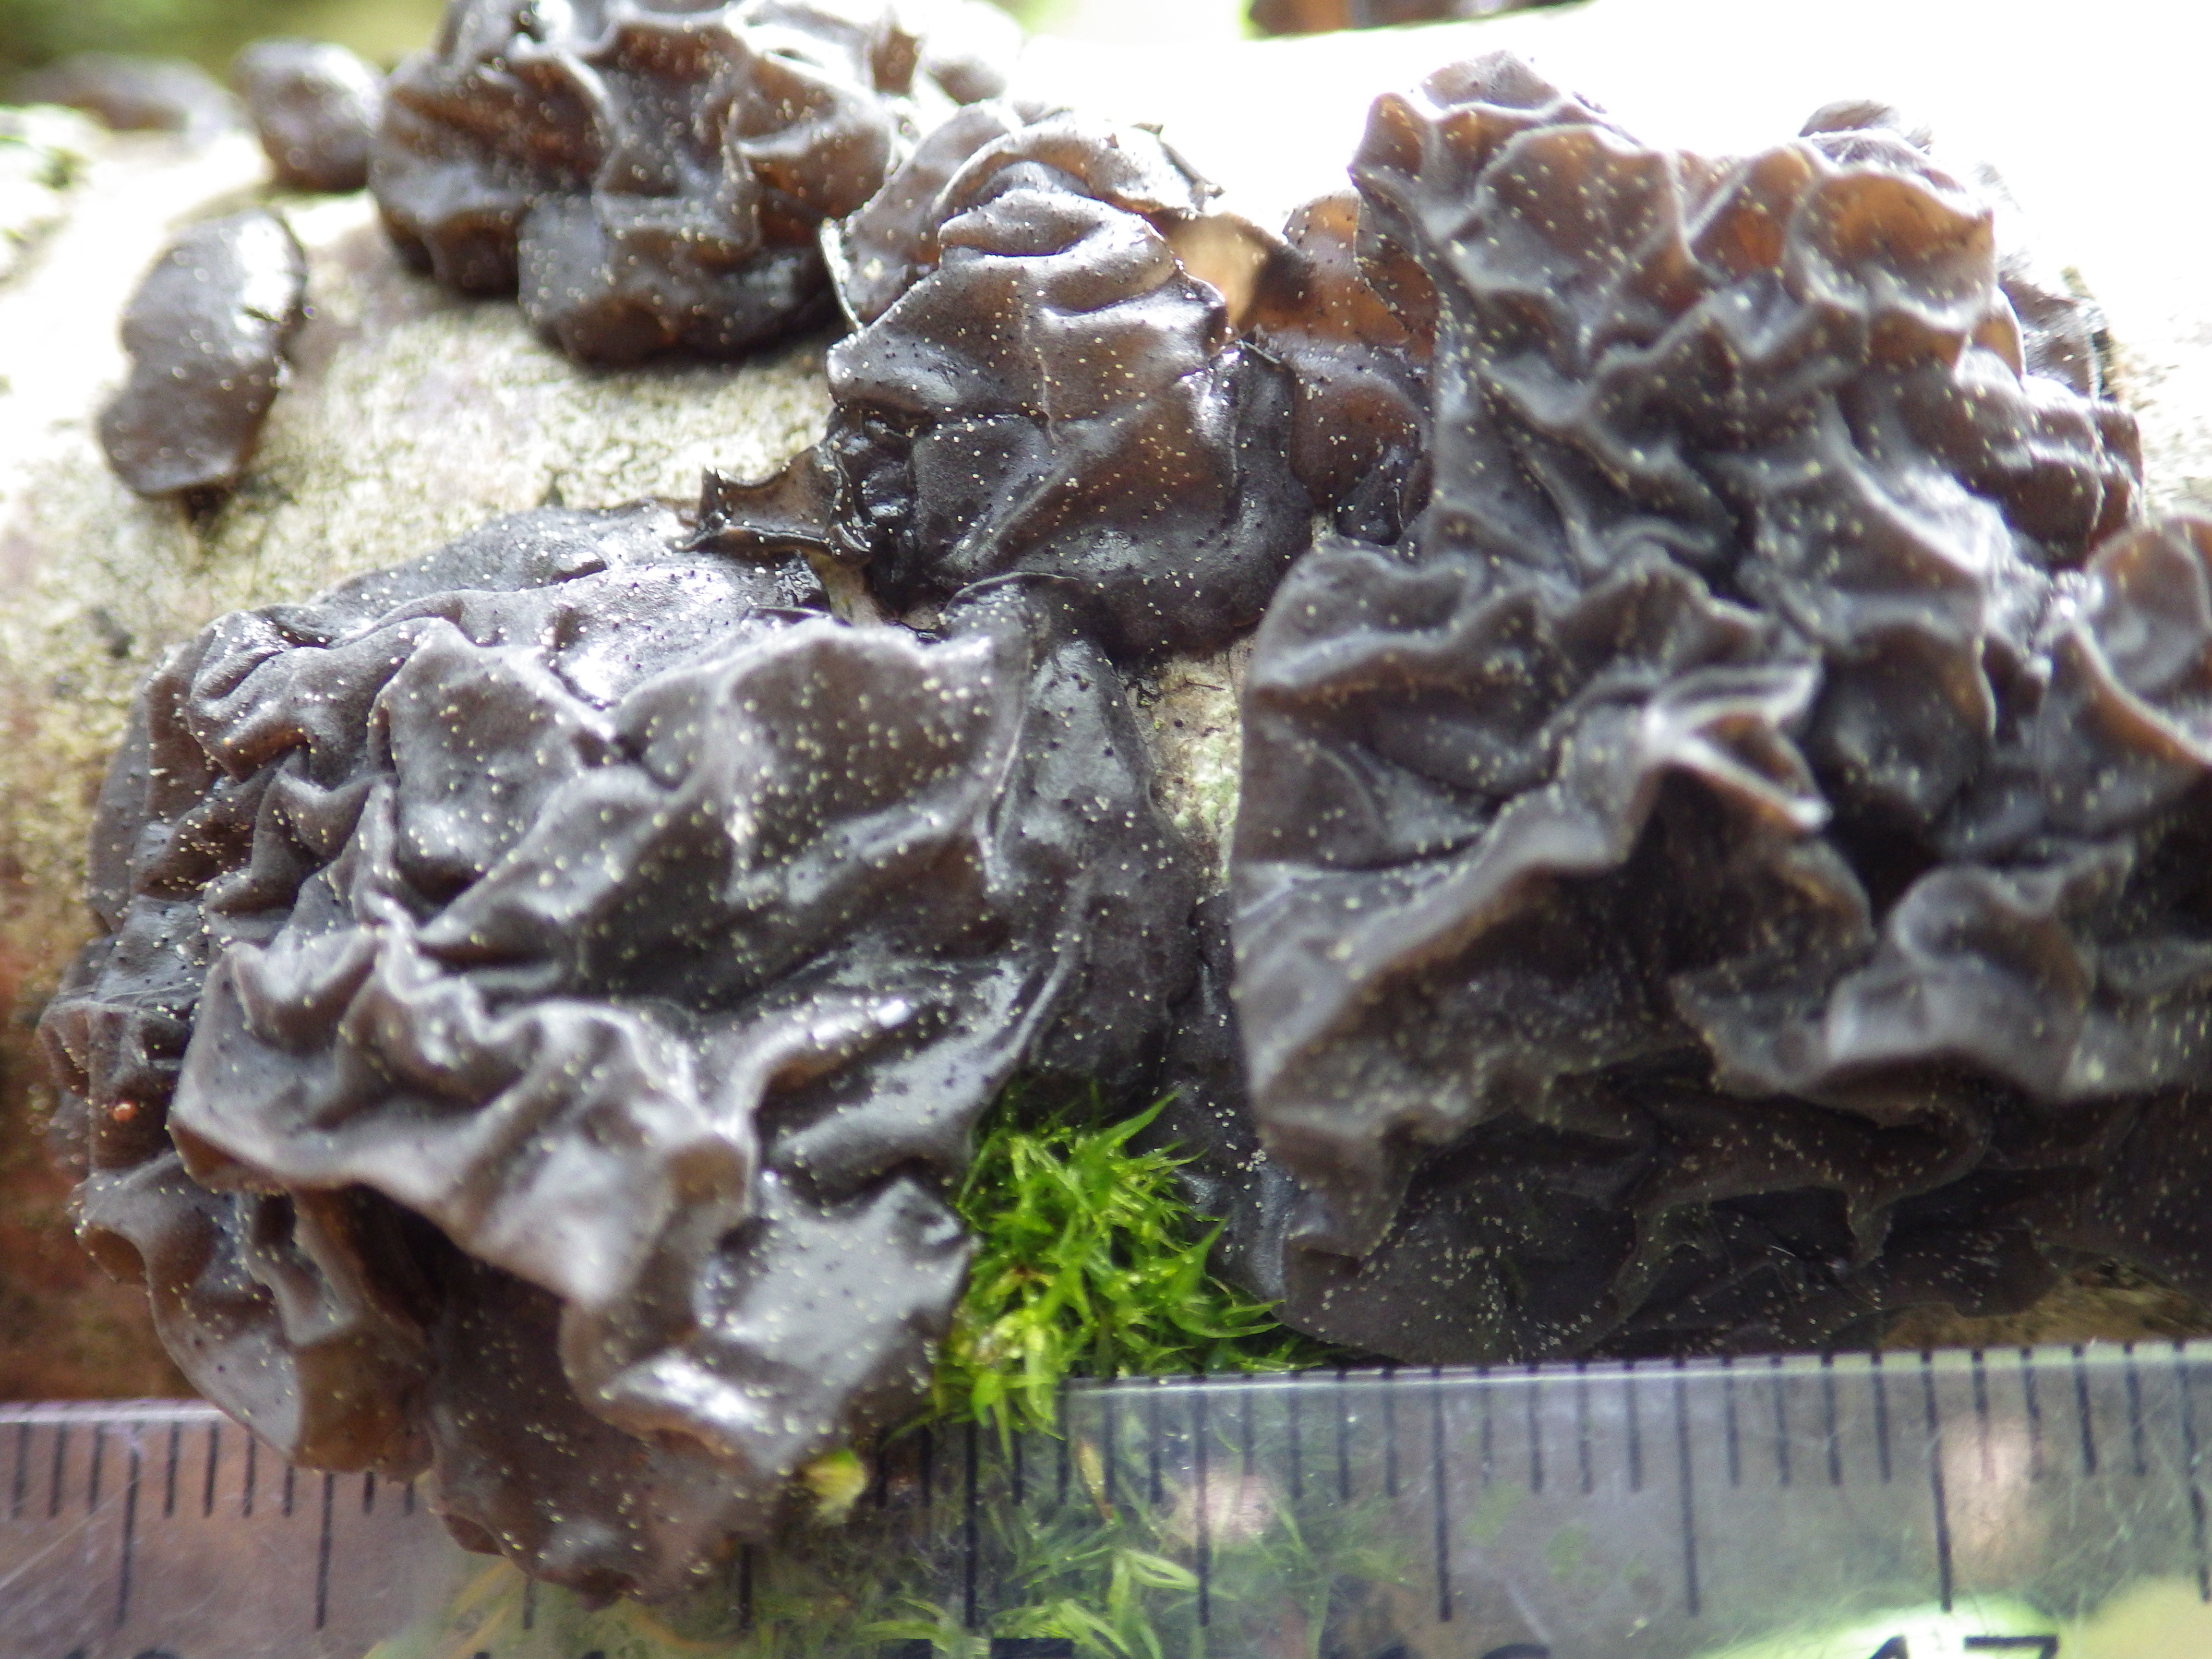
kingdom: Fungi
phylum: Basidiomycota
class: Agaricomycetes
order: Auriculariales
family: Auriculariaceae
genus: Exidia
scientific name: Exidia glandulosa
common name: Witches' butter
